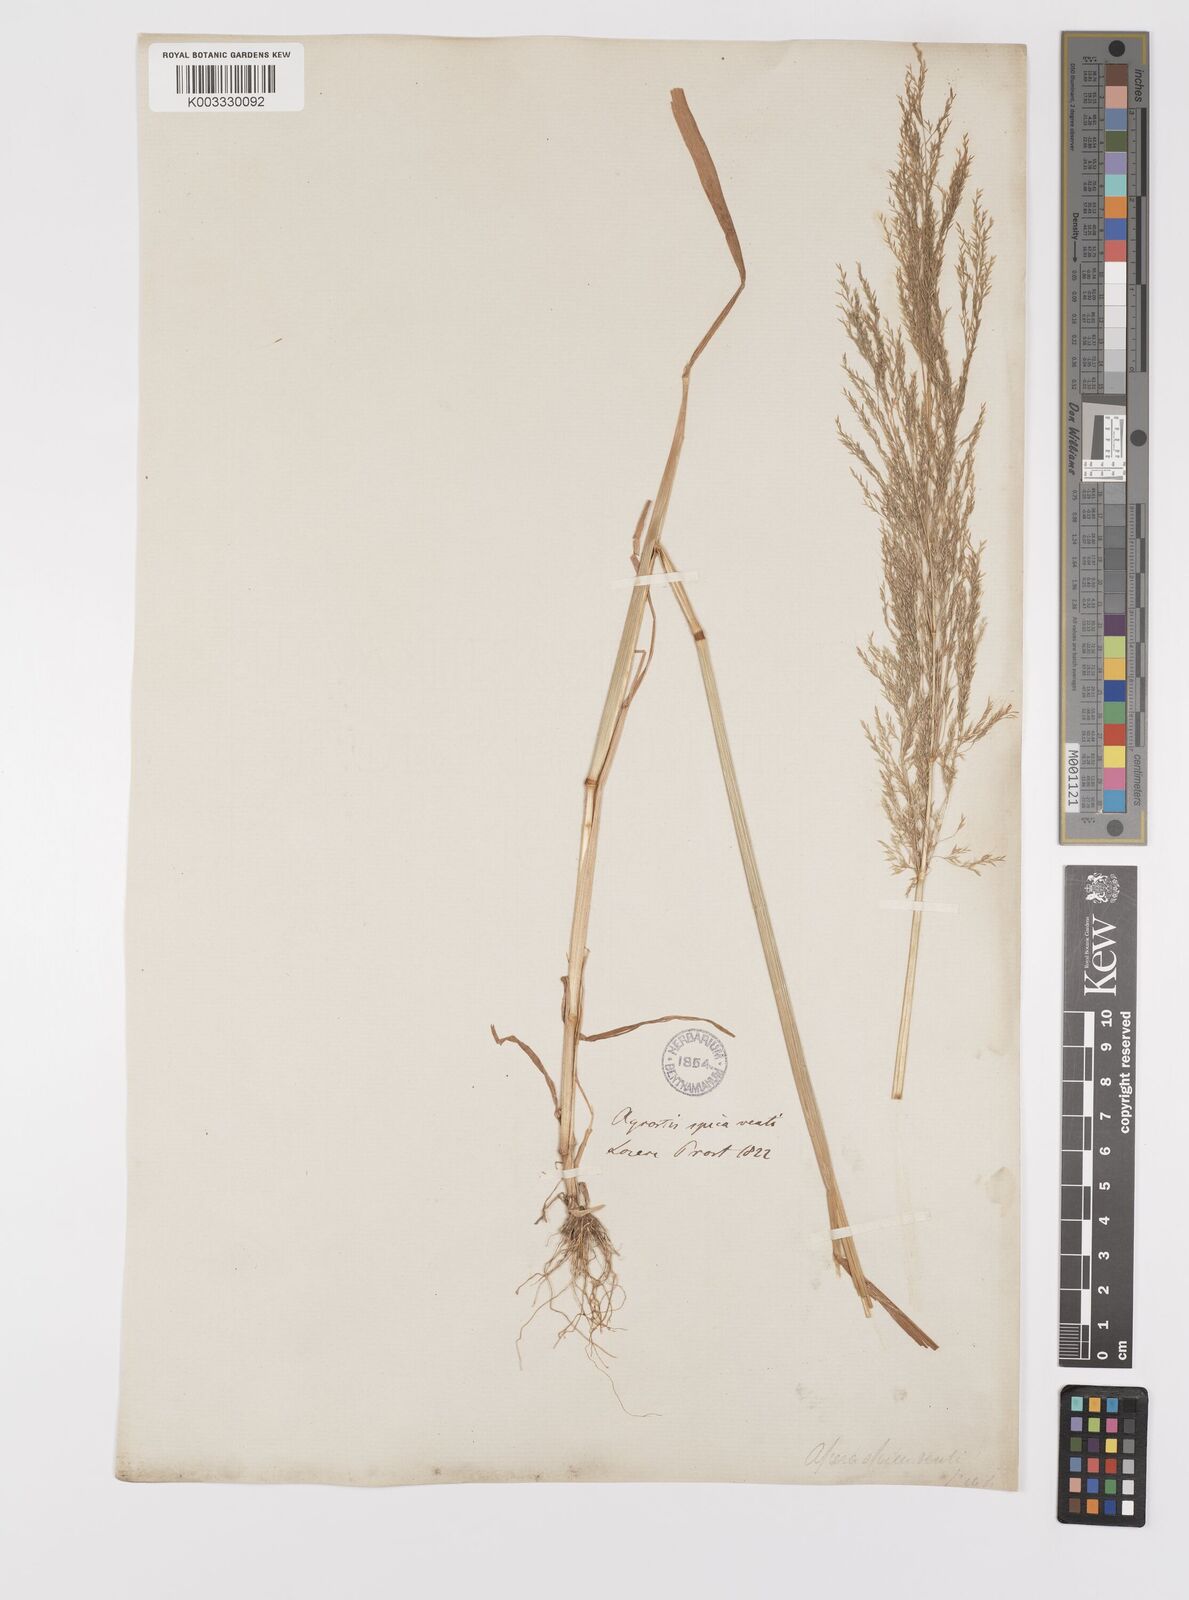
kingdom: Plantae
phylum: Tracheophyta
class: Liliopsida
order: Poales
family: Poaceae
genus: Apera
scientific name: Apera spica-venti
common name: Loose silky-bent
